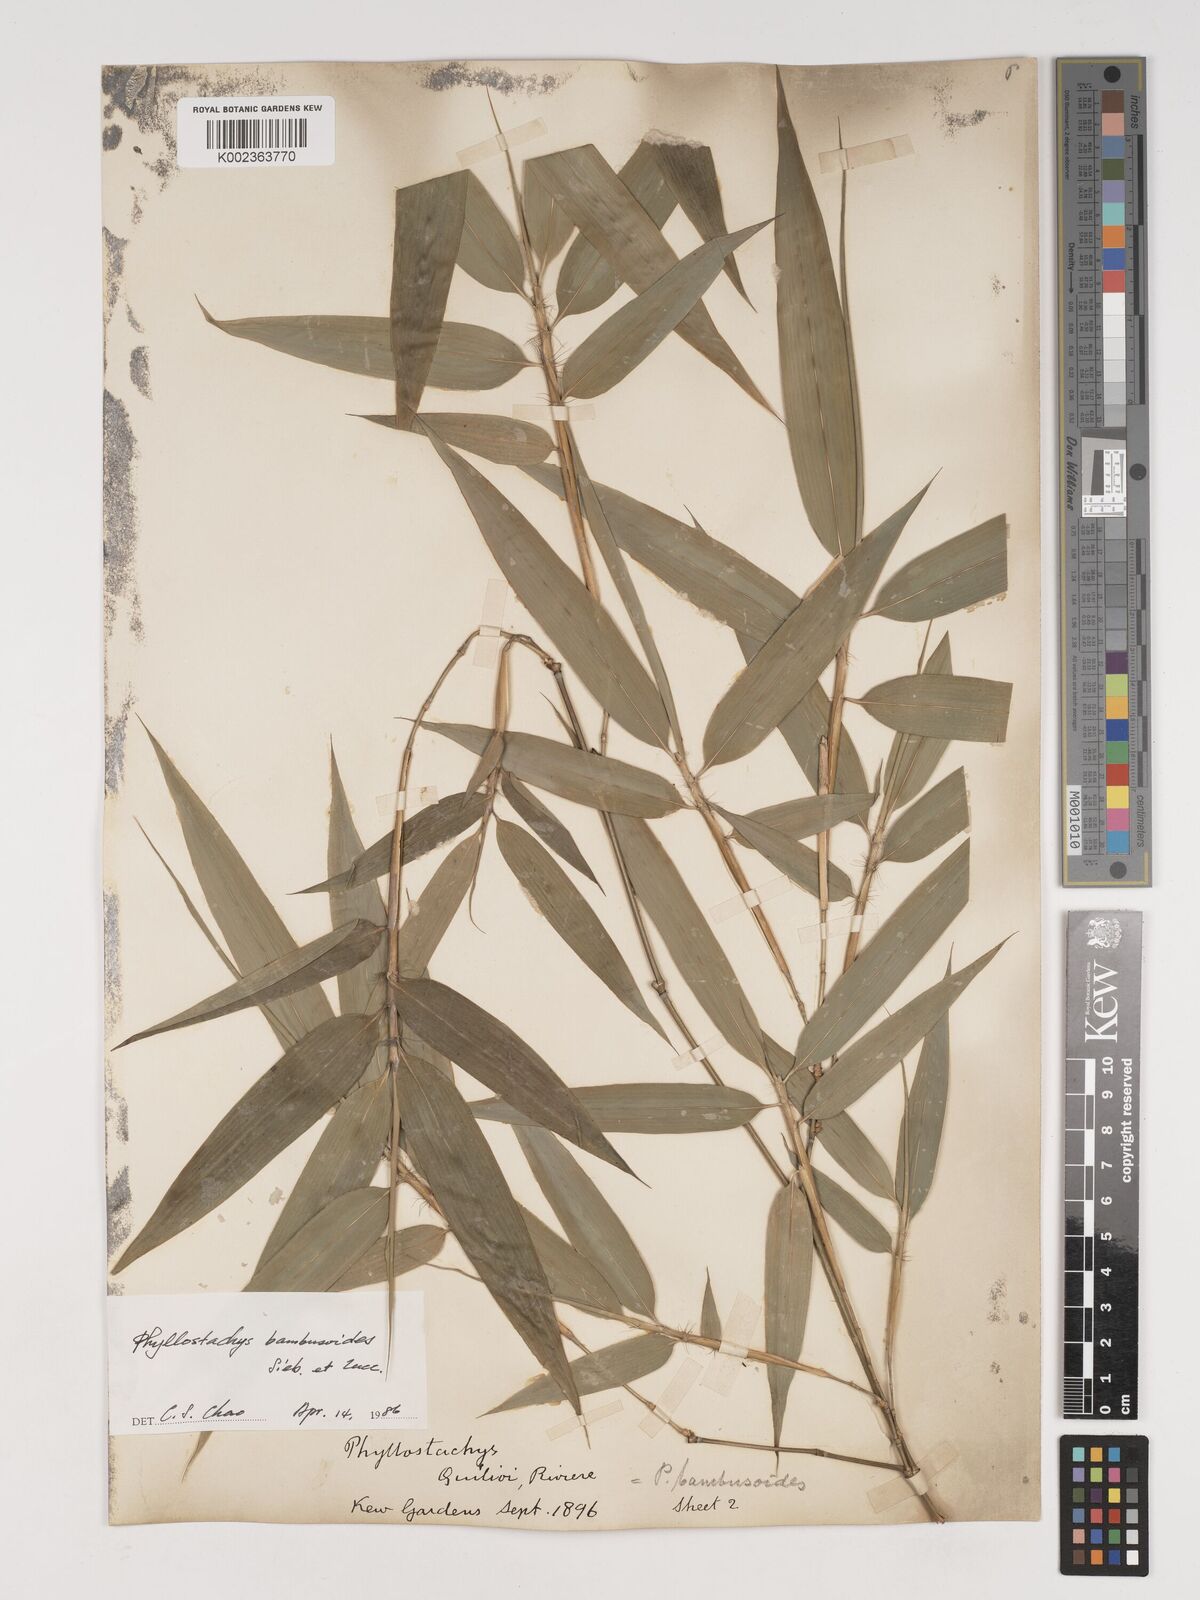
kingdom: Plantae
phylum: Tracheophyta
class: Liliopsida
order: Poales
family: Poaceae
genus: Phyllostachys
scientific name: Phyllostachys reticulata
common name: Bamboo
